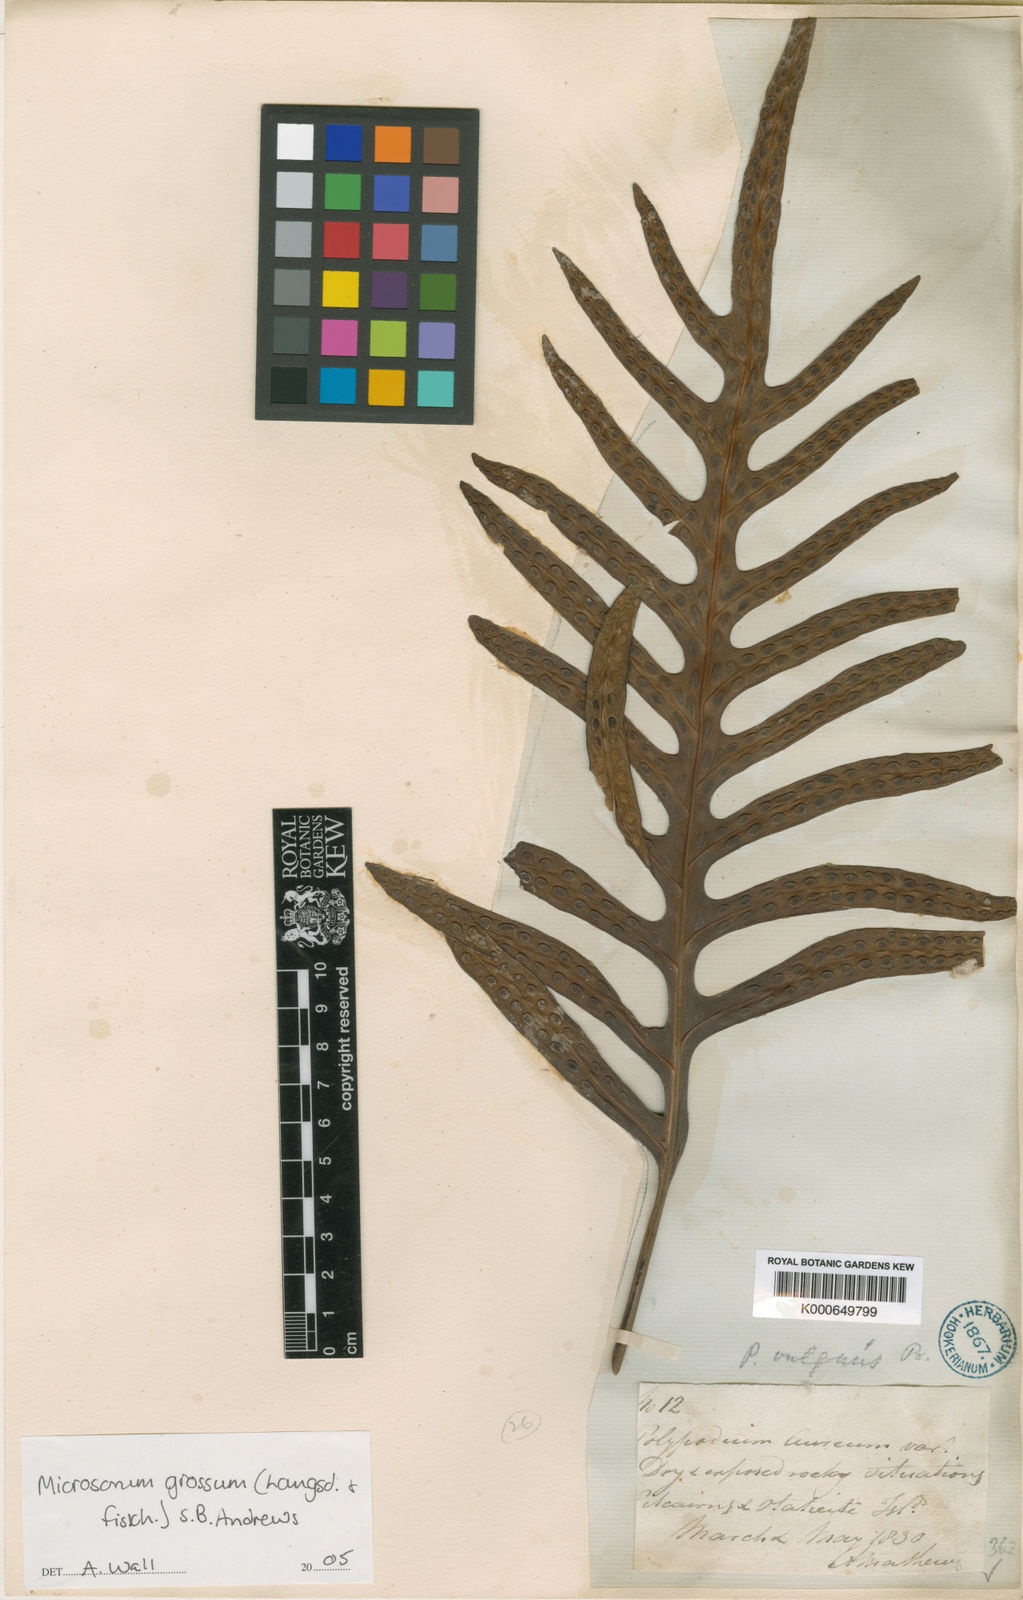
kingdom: Plantae
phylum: Tracheophyta
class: Polypodiopsida
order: Polypodiales
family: Polypodiaceae
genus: Microsorum
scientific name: Microsorum grossum
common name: Musk fern
